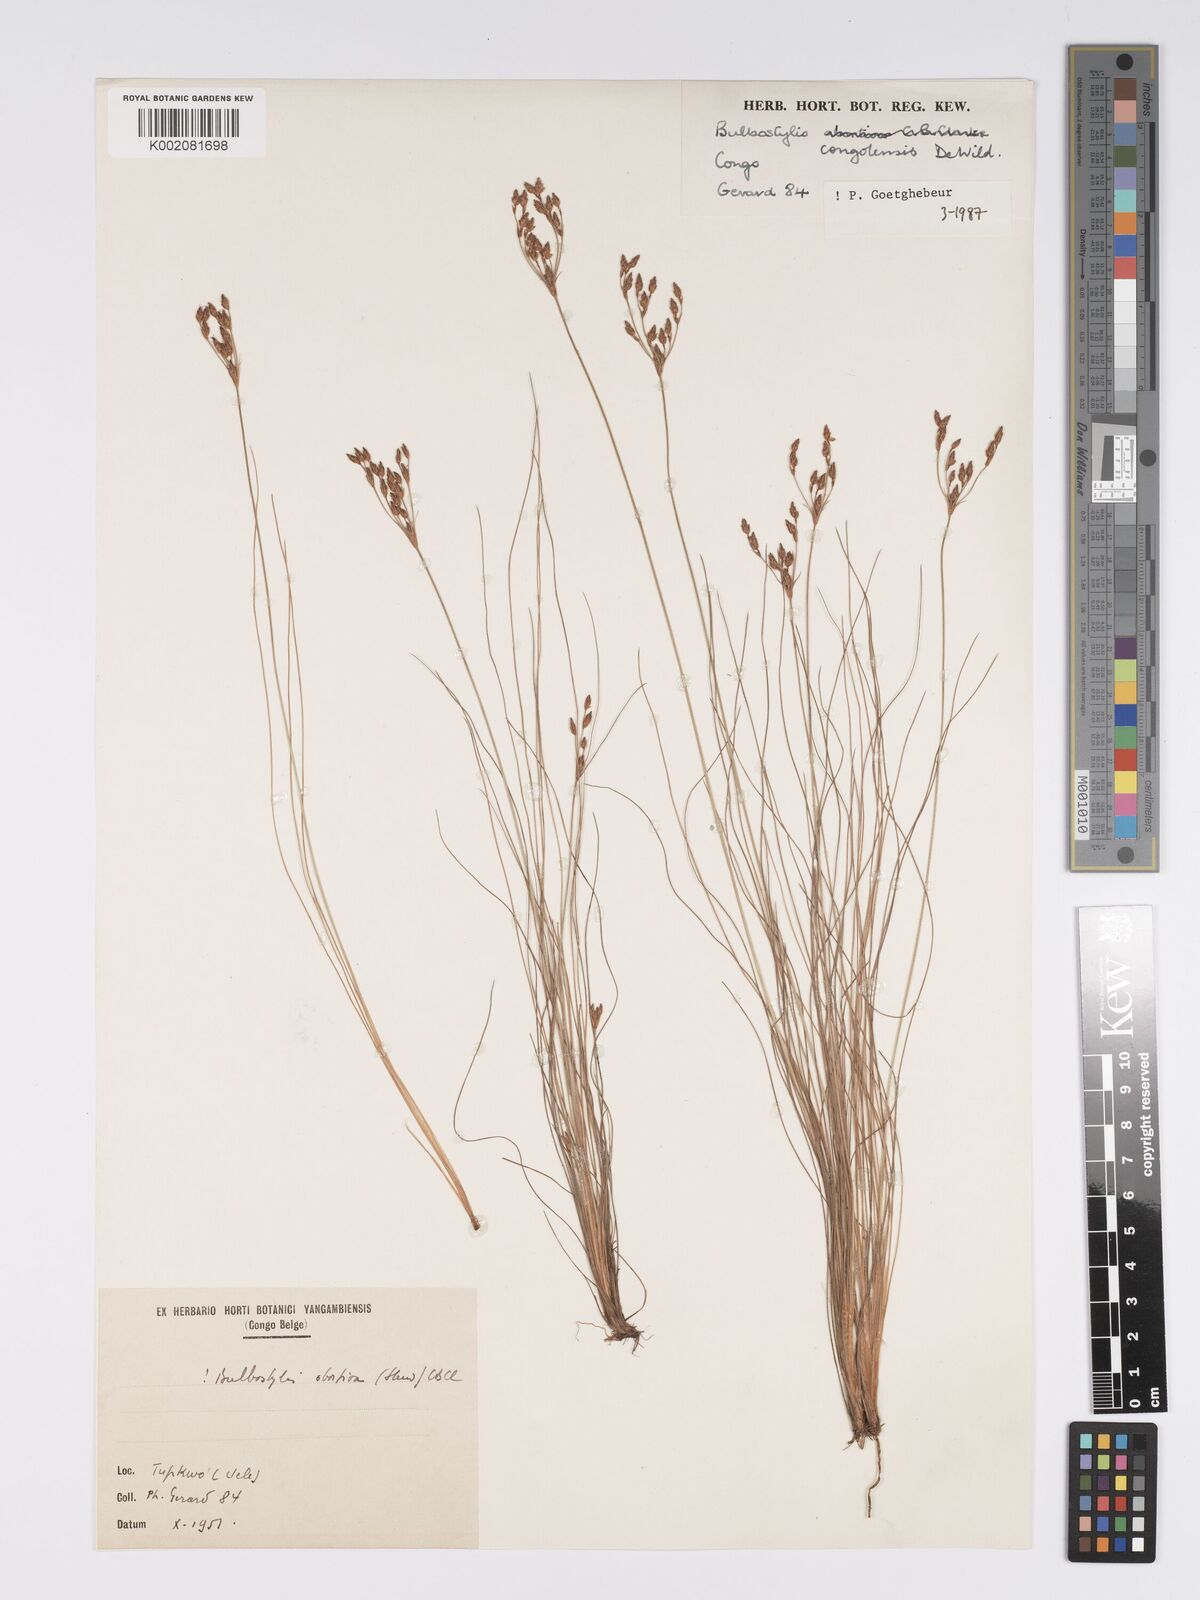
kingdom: Plantae
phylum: Tracheophyta
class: Liliopsida
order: Poales
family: Cyperaceae
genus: Bulbostylis
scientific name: Bulbostylis congolensis
